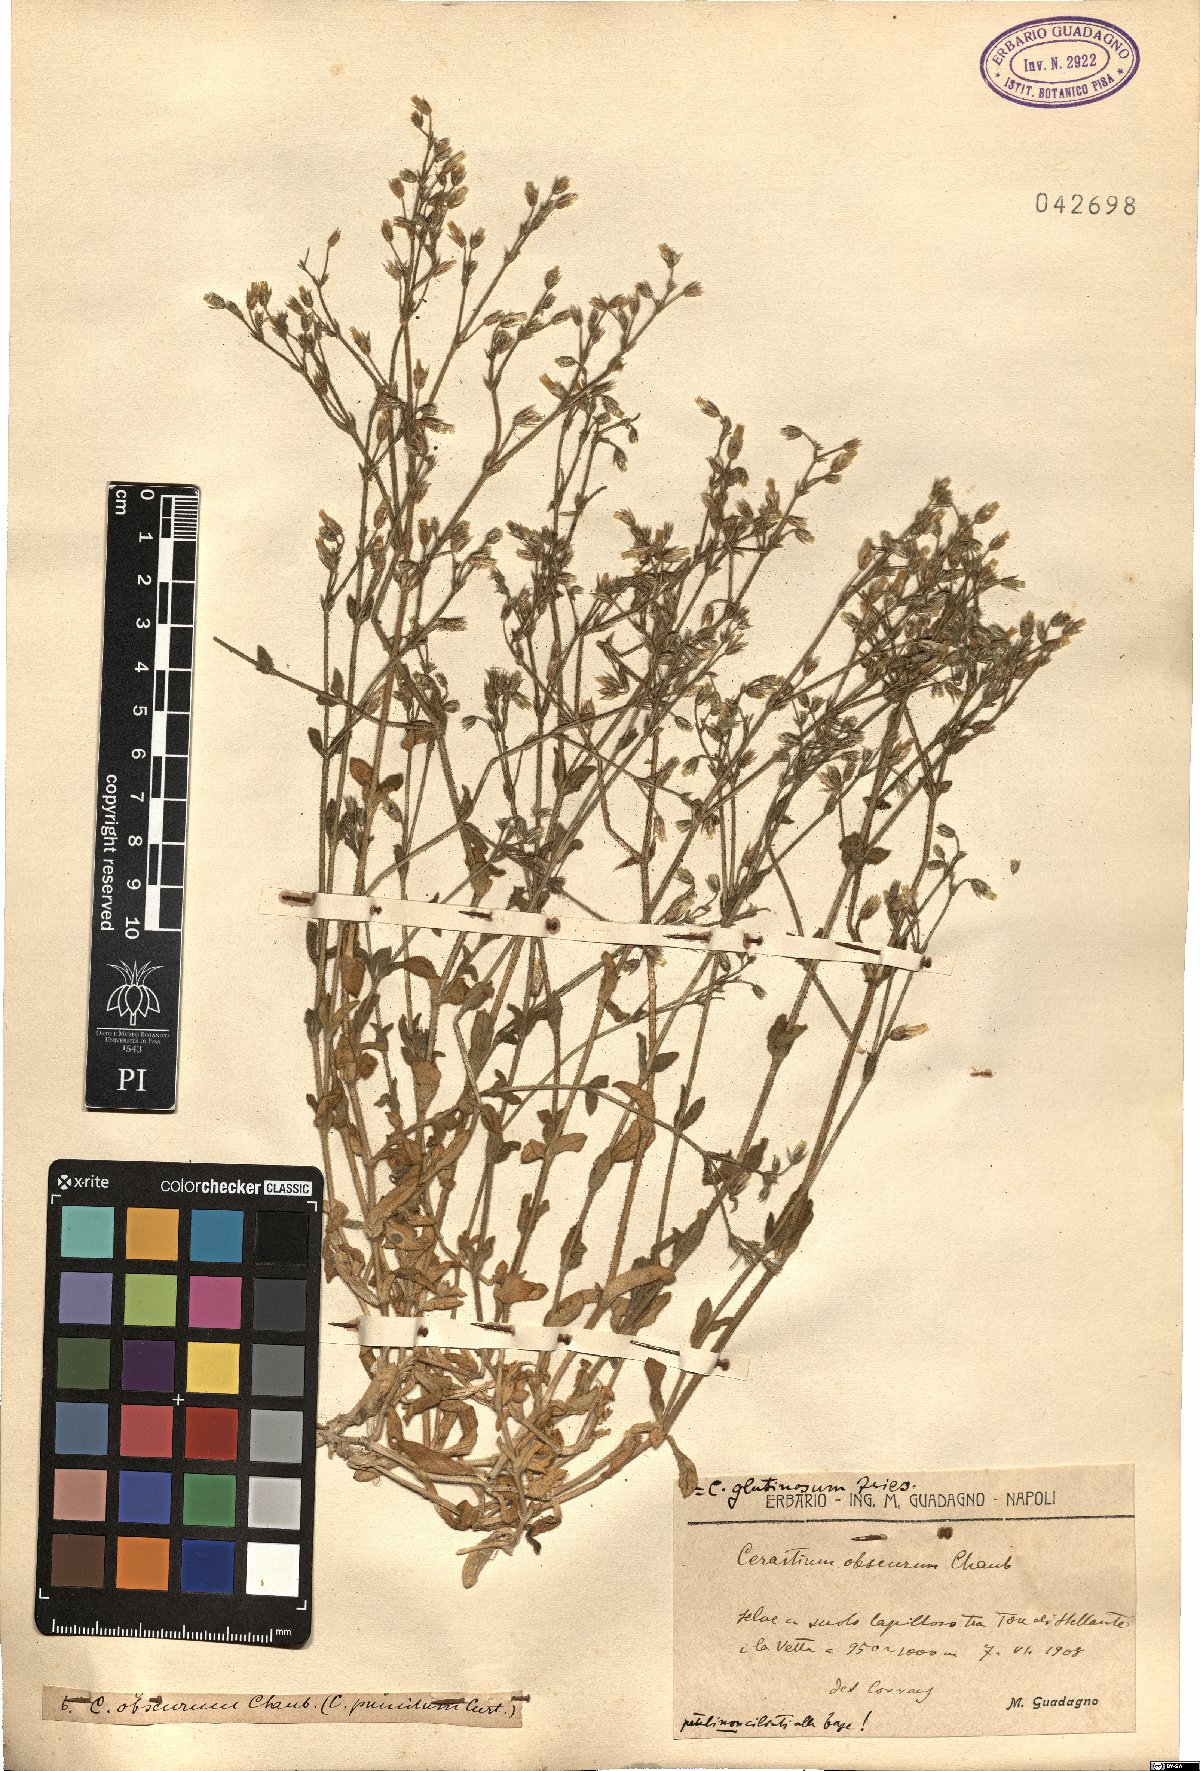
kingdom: Plantae
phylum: Tracheophyta
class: Magnoliopsida
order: Caryophyllales
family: Caryophyllaceae
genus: Cerastium
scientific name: Cerastium pumilum
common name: Dwarf mouse-ear
